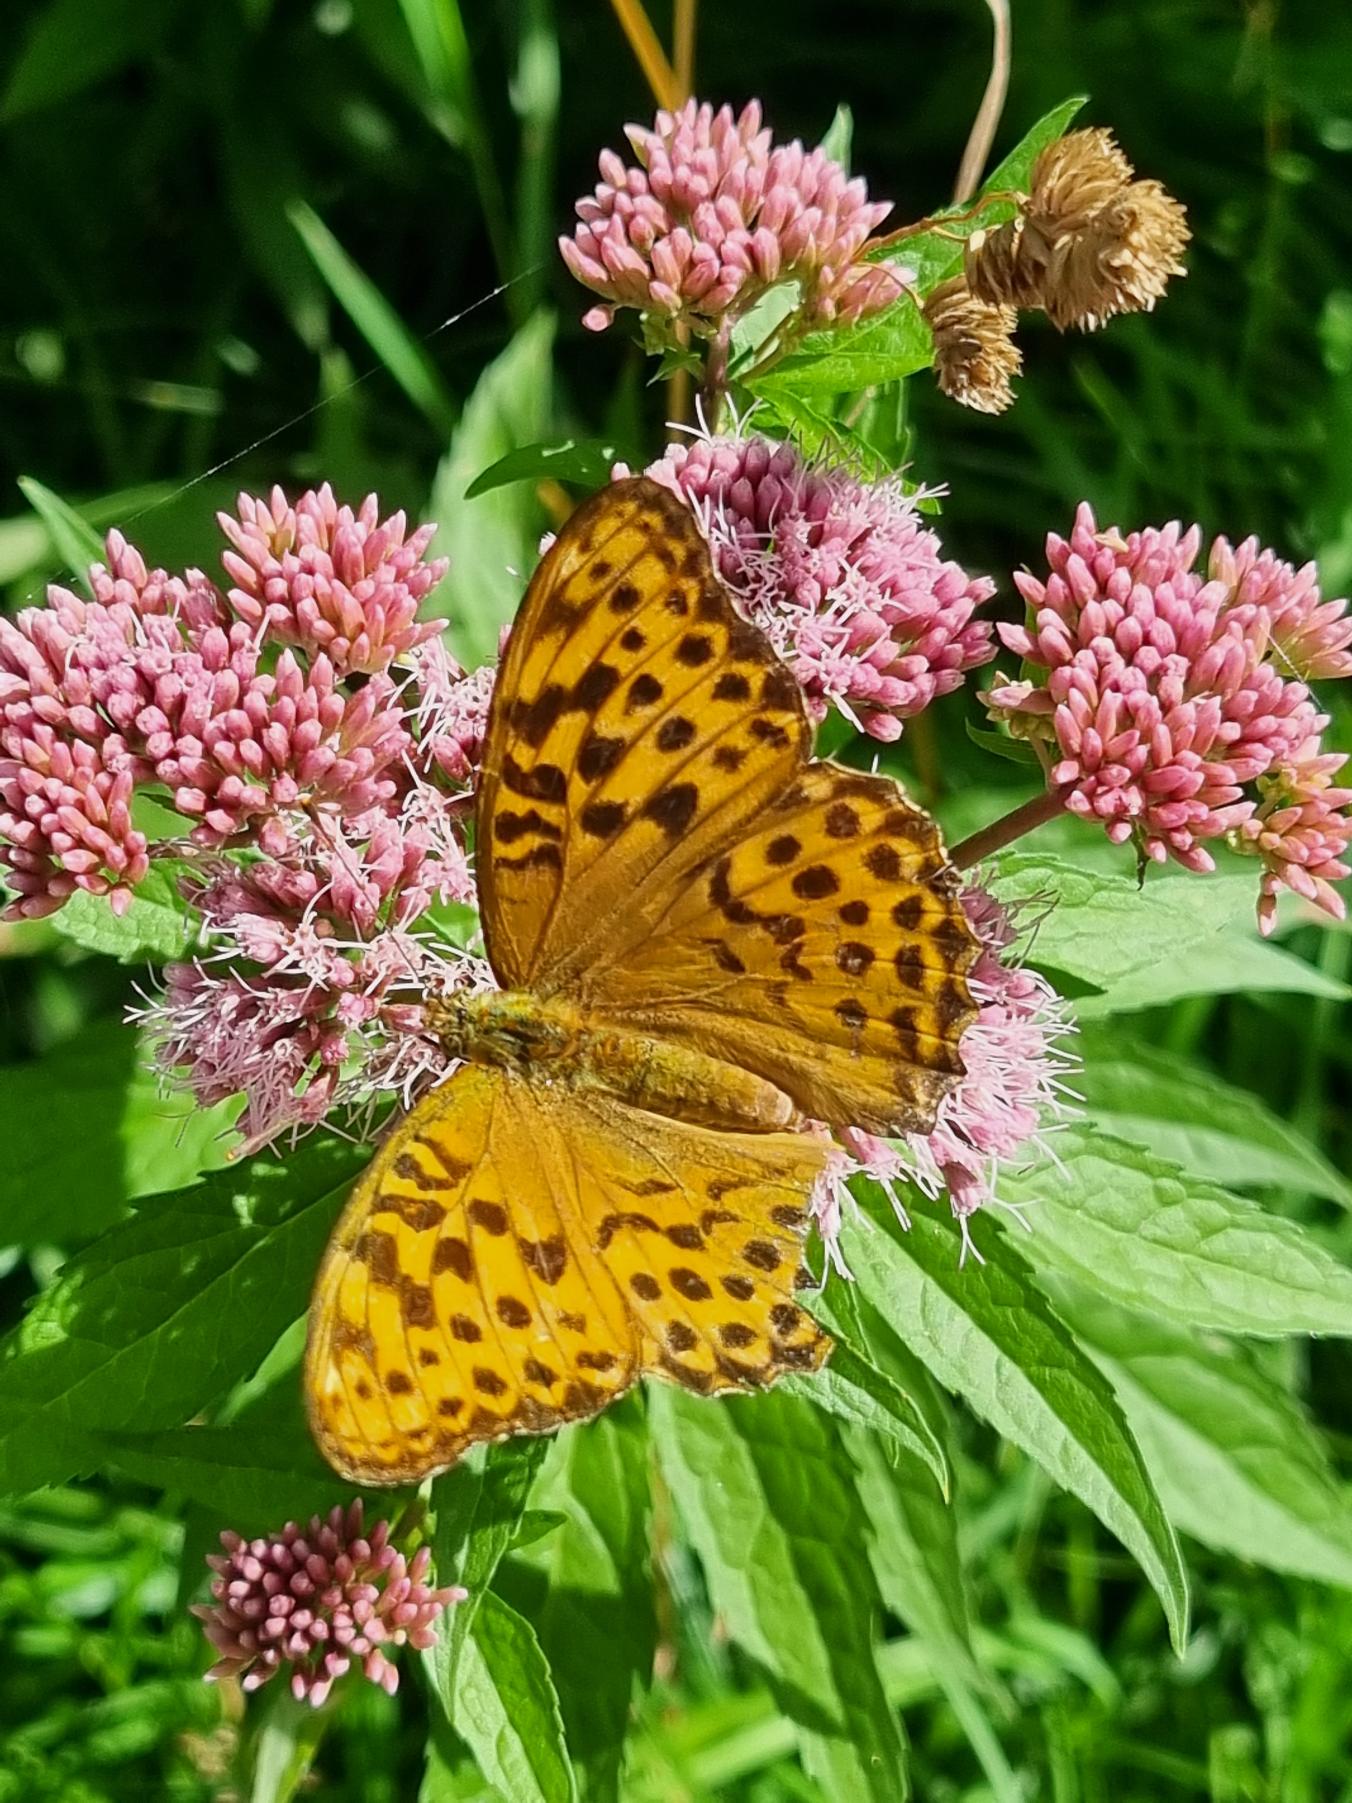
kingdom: Animalia
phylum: Arthropoda
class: Insecta
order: Lepidoptera
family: Nymphalidae
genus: Argynnis
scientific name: Argynnis paphia
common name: Kejserkåbe
